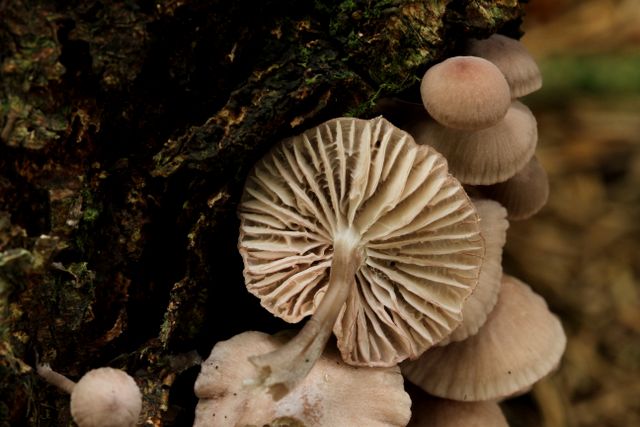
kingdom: Fungi
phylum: Basidiomycota
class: Agaricomycetes
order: Agaricales
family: Mycenaceae
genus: Mycena
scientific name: Mycena rubromarginata
